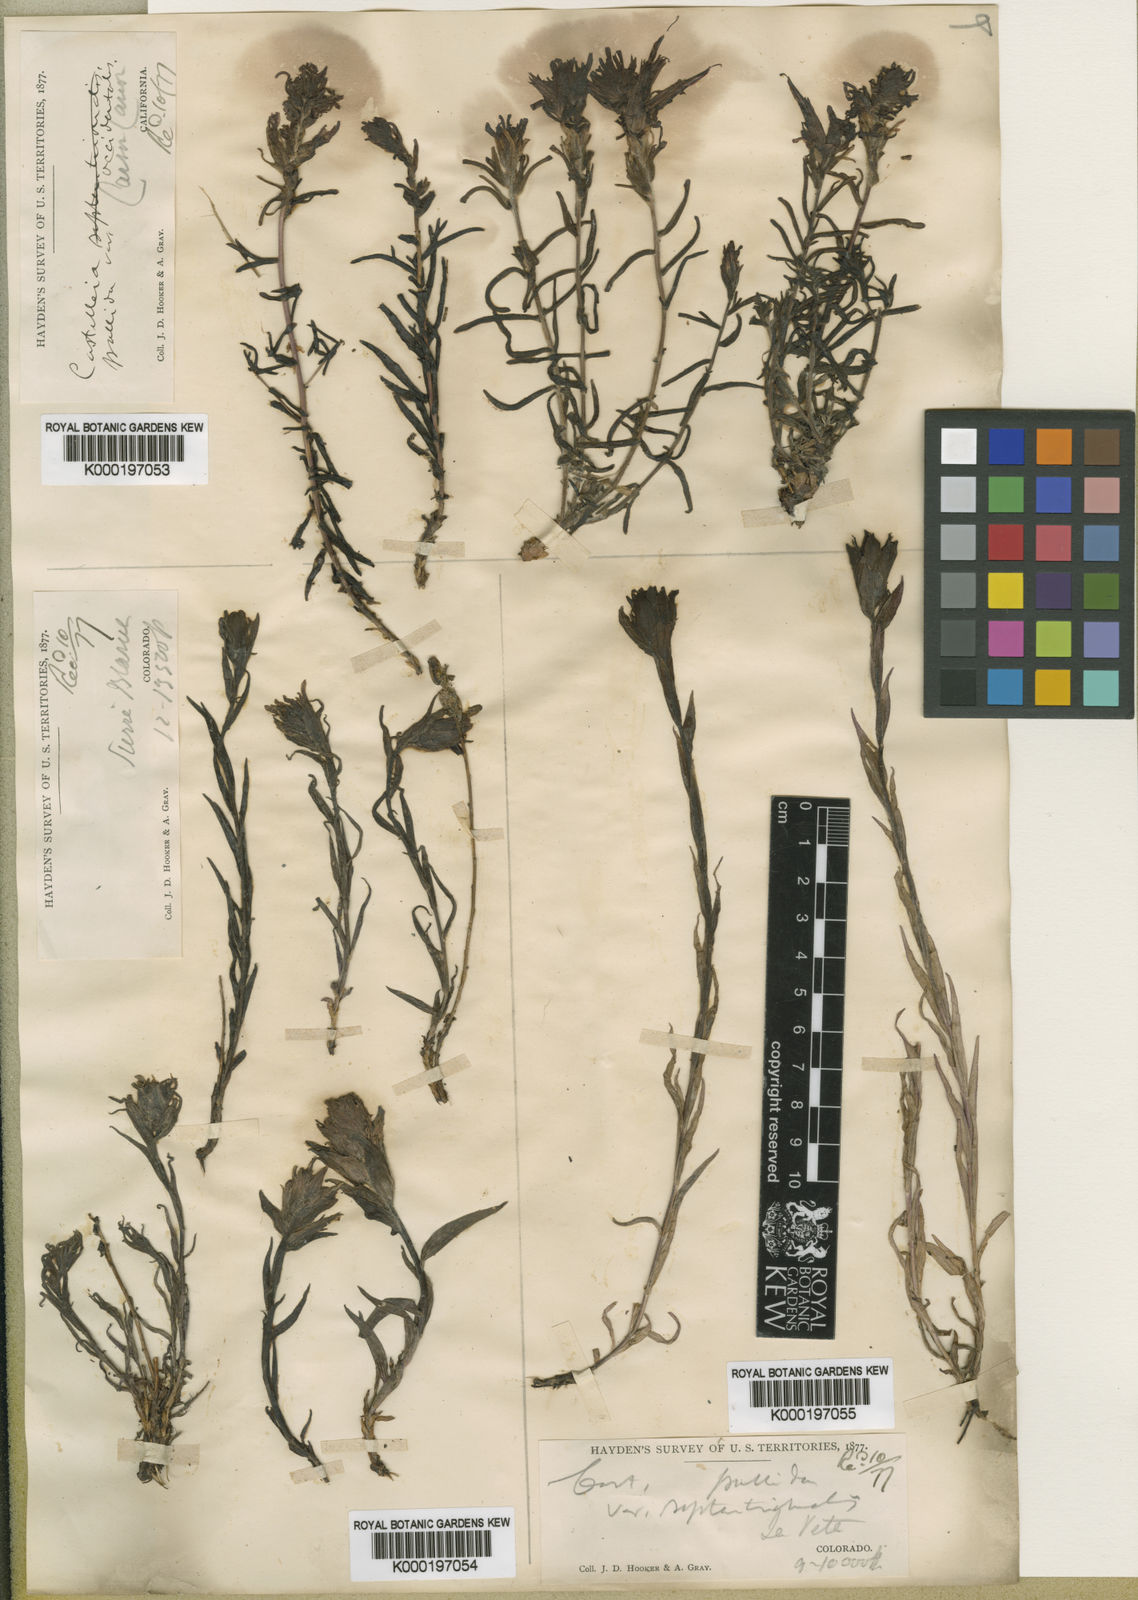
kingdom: Plantae
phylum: Tracheophyta
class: Magnoliopsida
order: Lamiales
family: Orobanchaceae
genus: Castilleja
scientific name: Castilleja pallida
